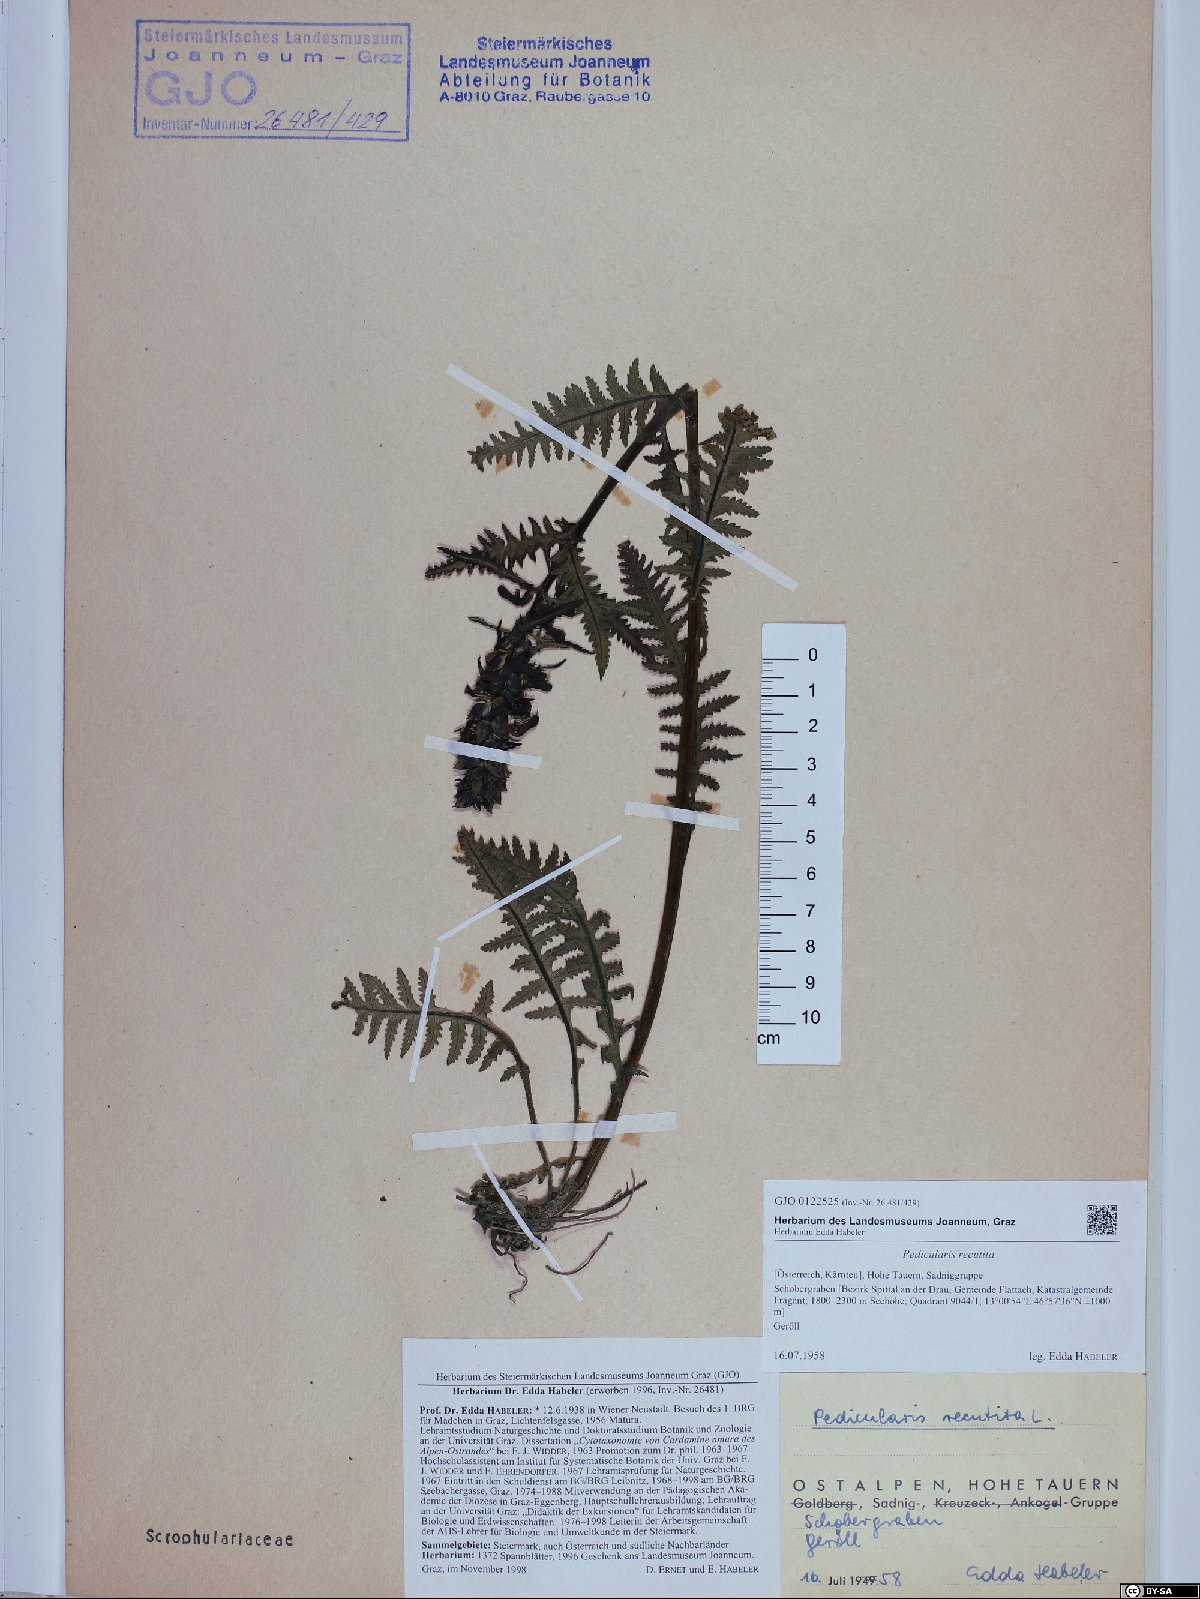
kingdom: Plantae
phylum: Tracheophyta
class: Magnoliopsida
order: Lamiales
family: Orobanchaceae
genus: Pedicularis
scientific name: Pedicularis recutita
